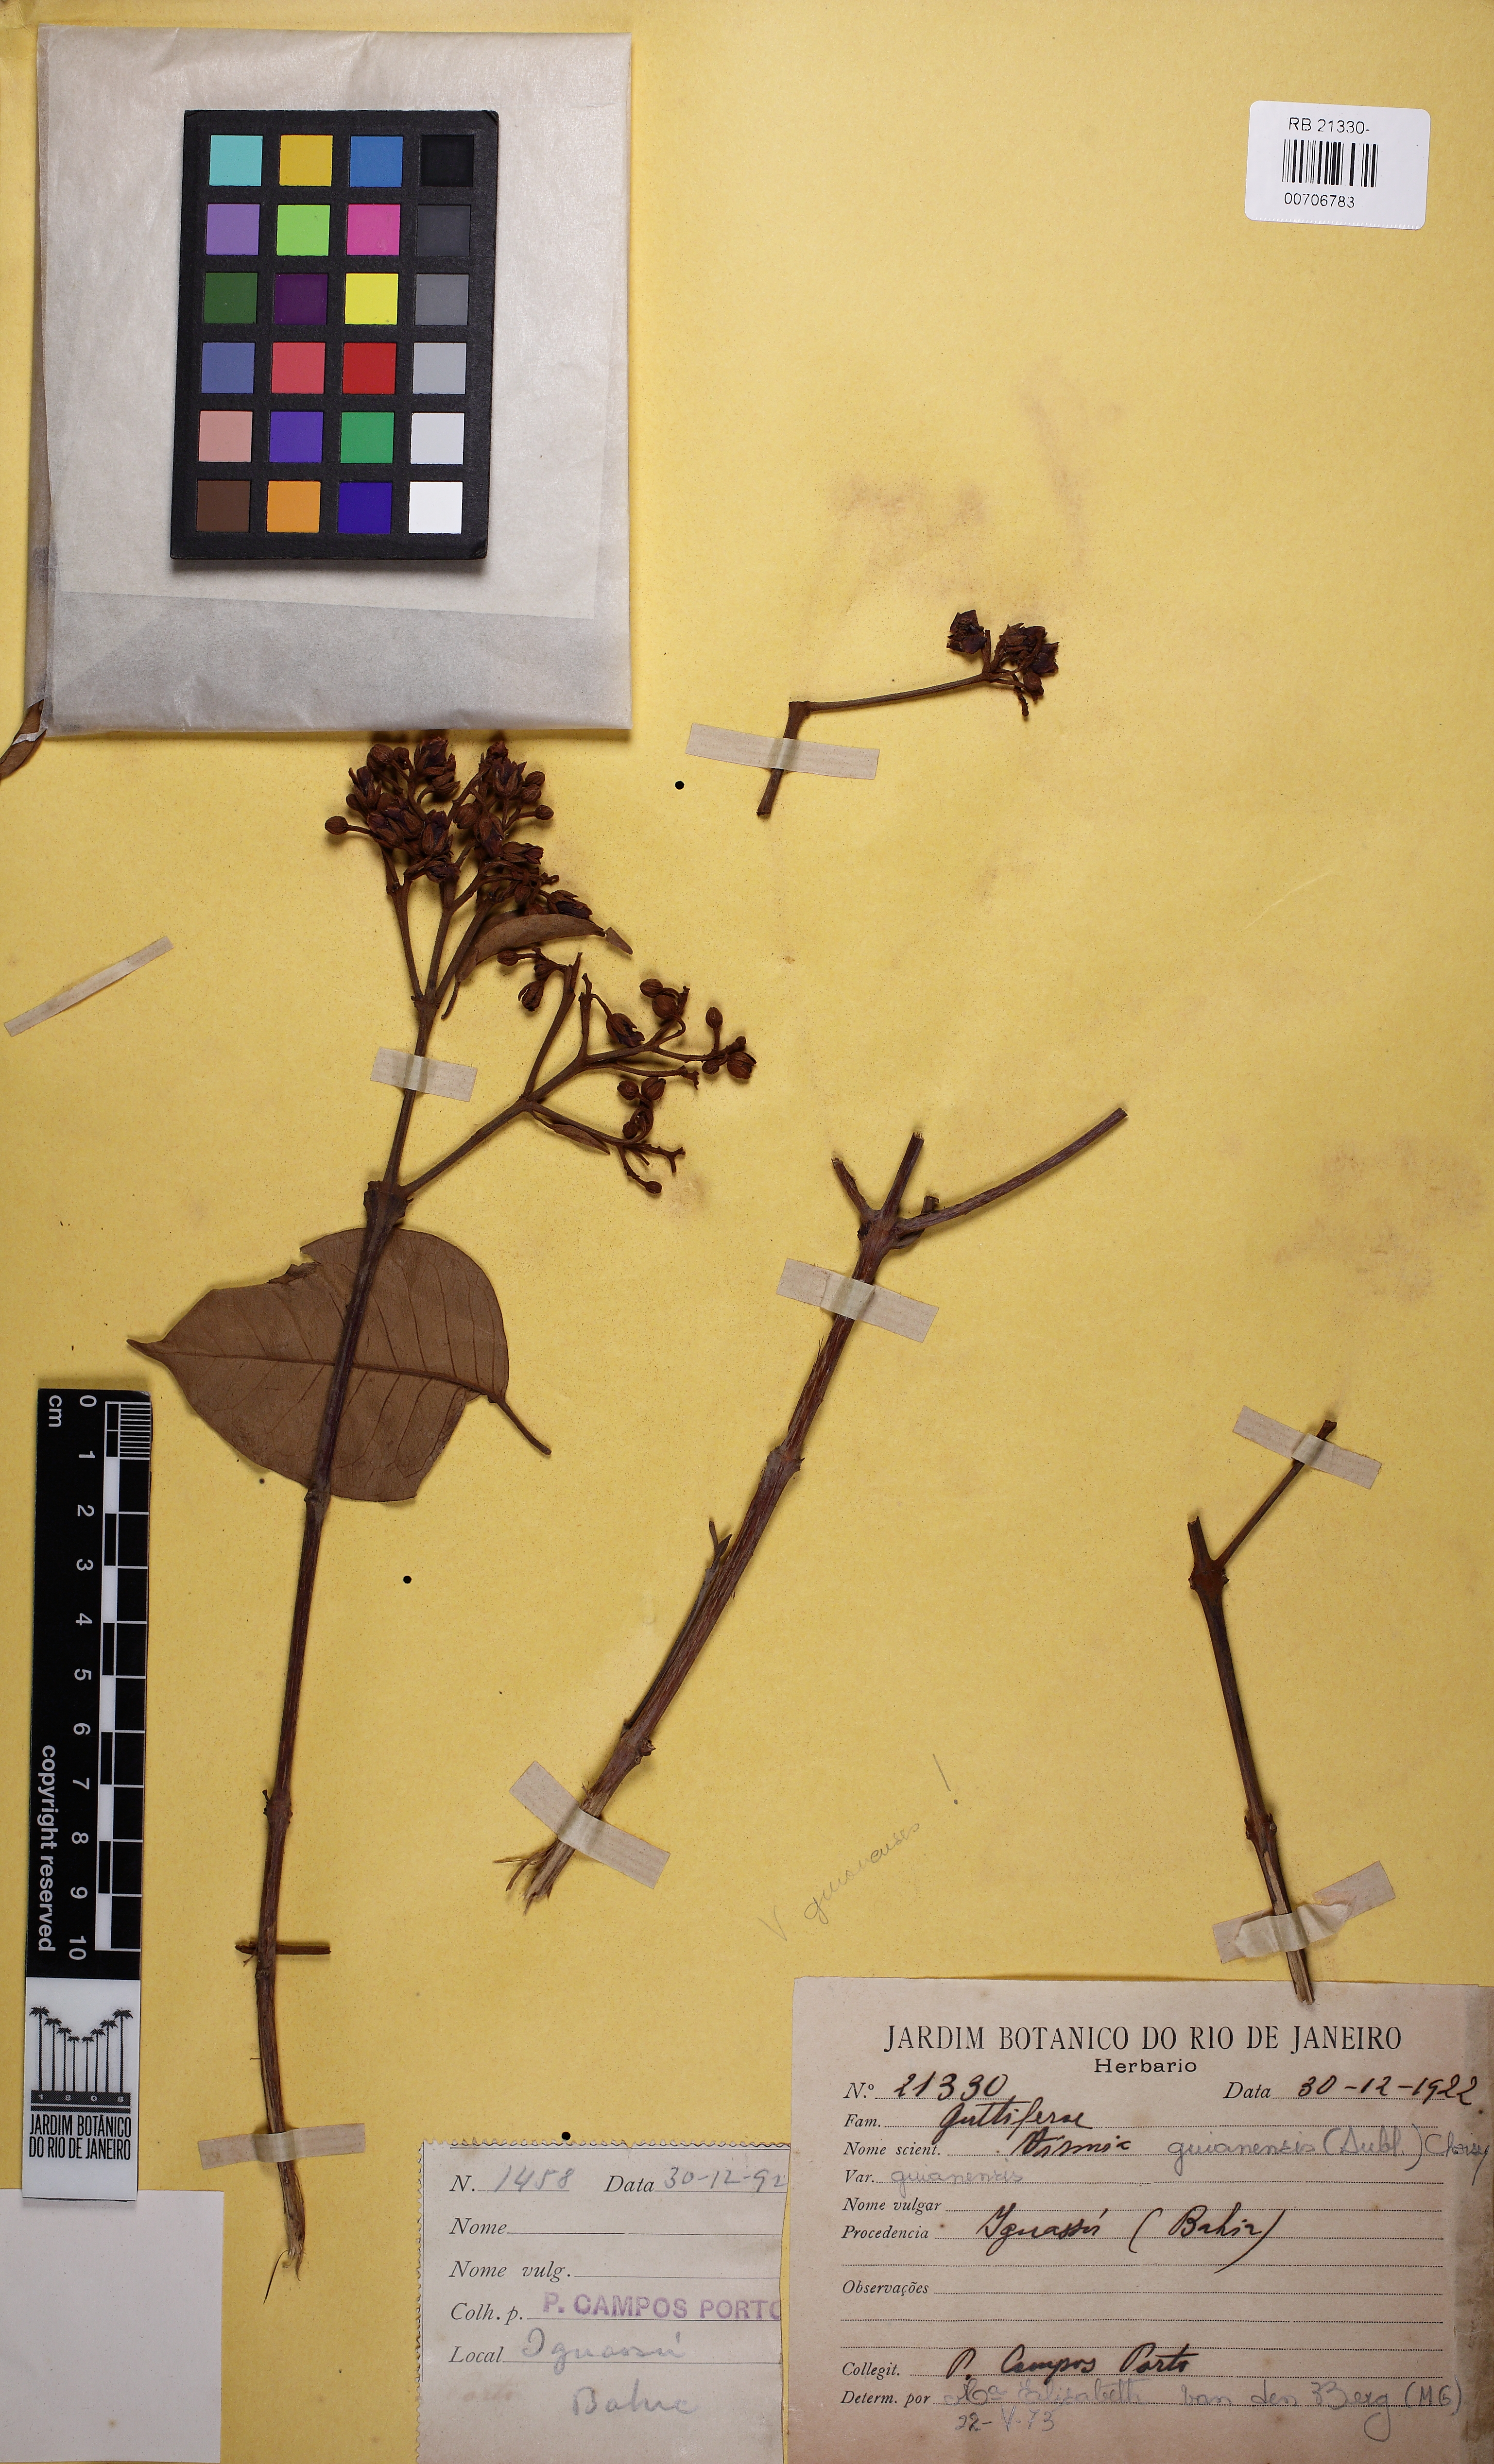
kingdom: Plantae
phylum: Tracheophyta
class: Magnoliopsida
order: Malpighiales
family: Hypericaceae
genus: Vismia
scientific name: Vismia guianensis
